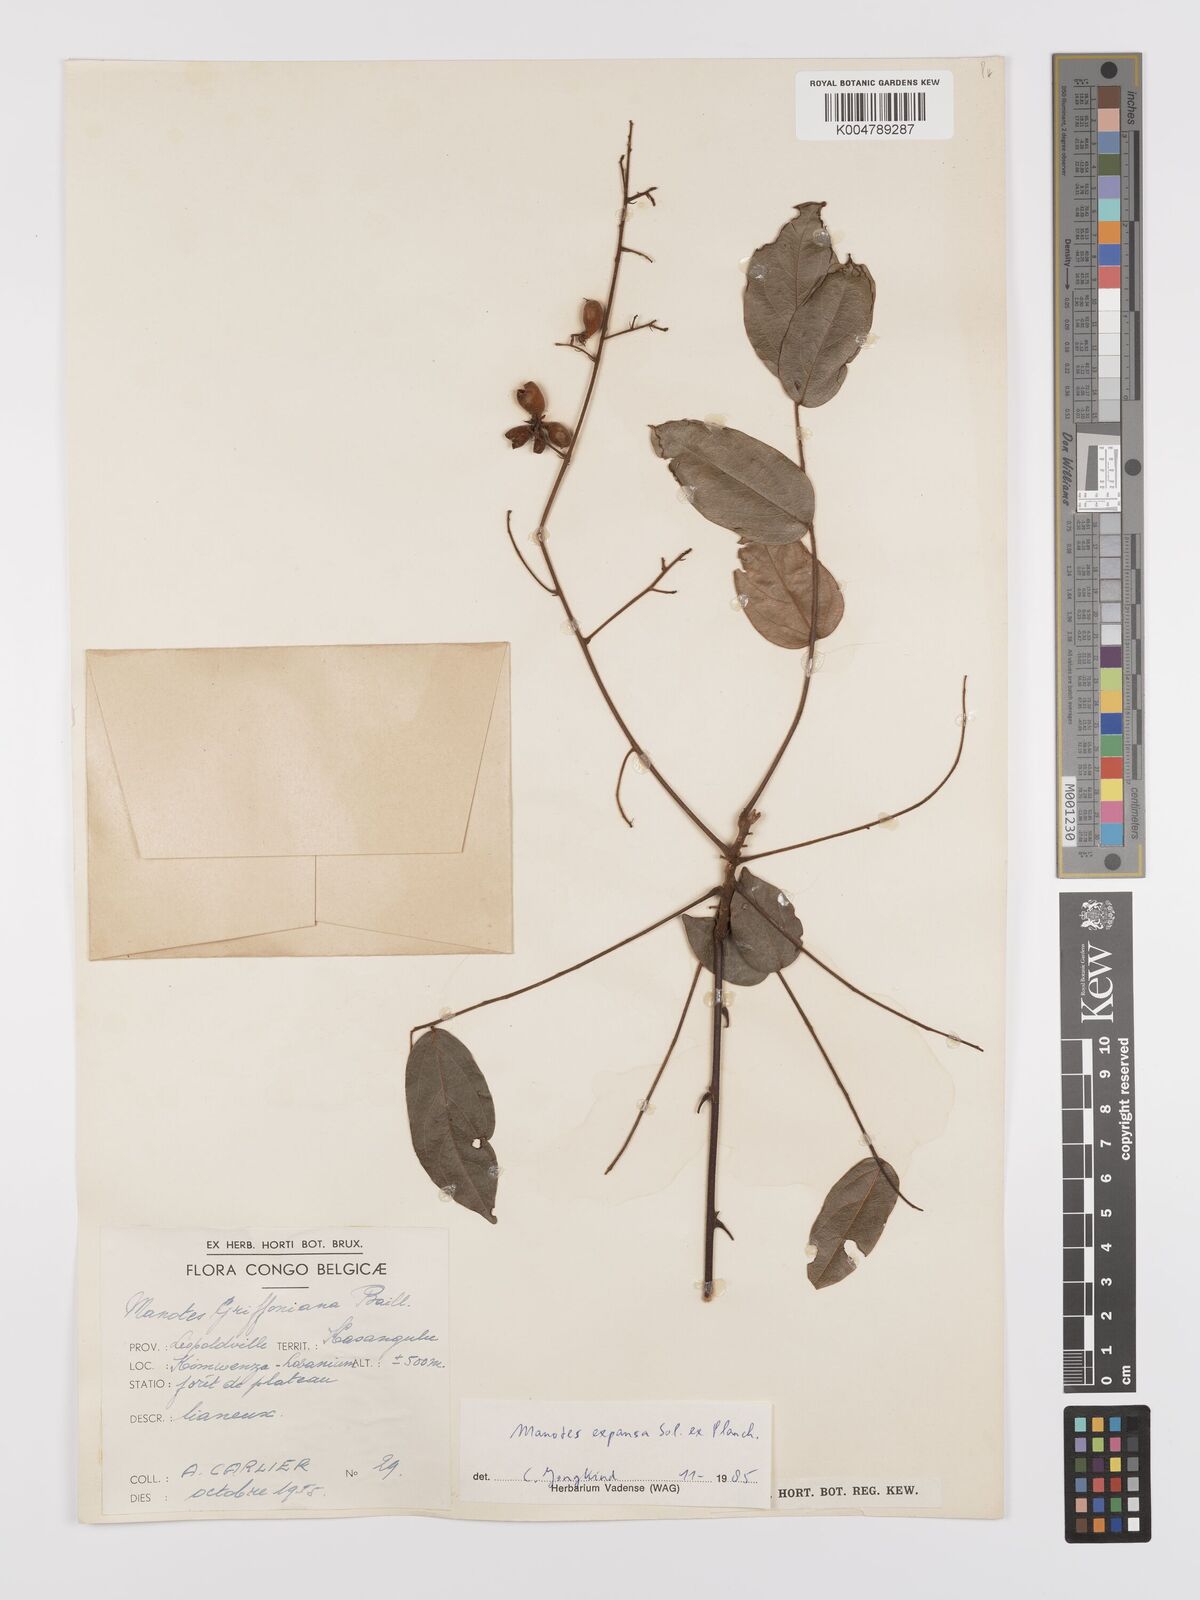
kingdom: Plantae
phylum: Tracheophyta
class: Magnoliopsida
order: Oxalidales
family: Connaraceae
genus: Manotes
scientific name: Manotes expansa
